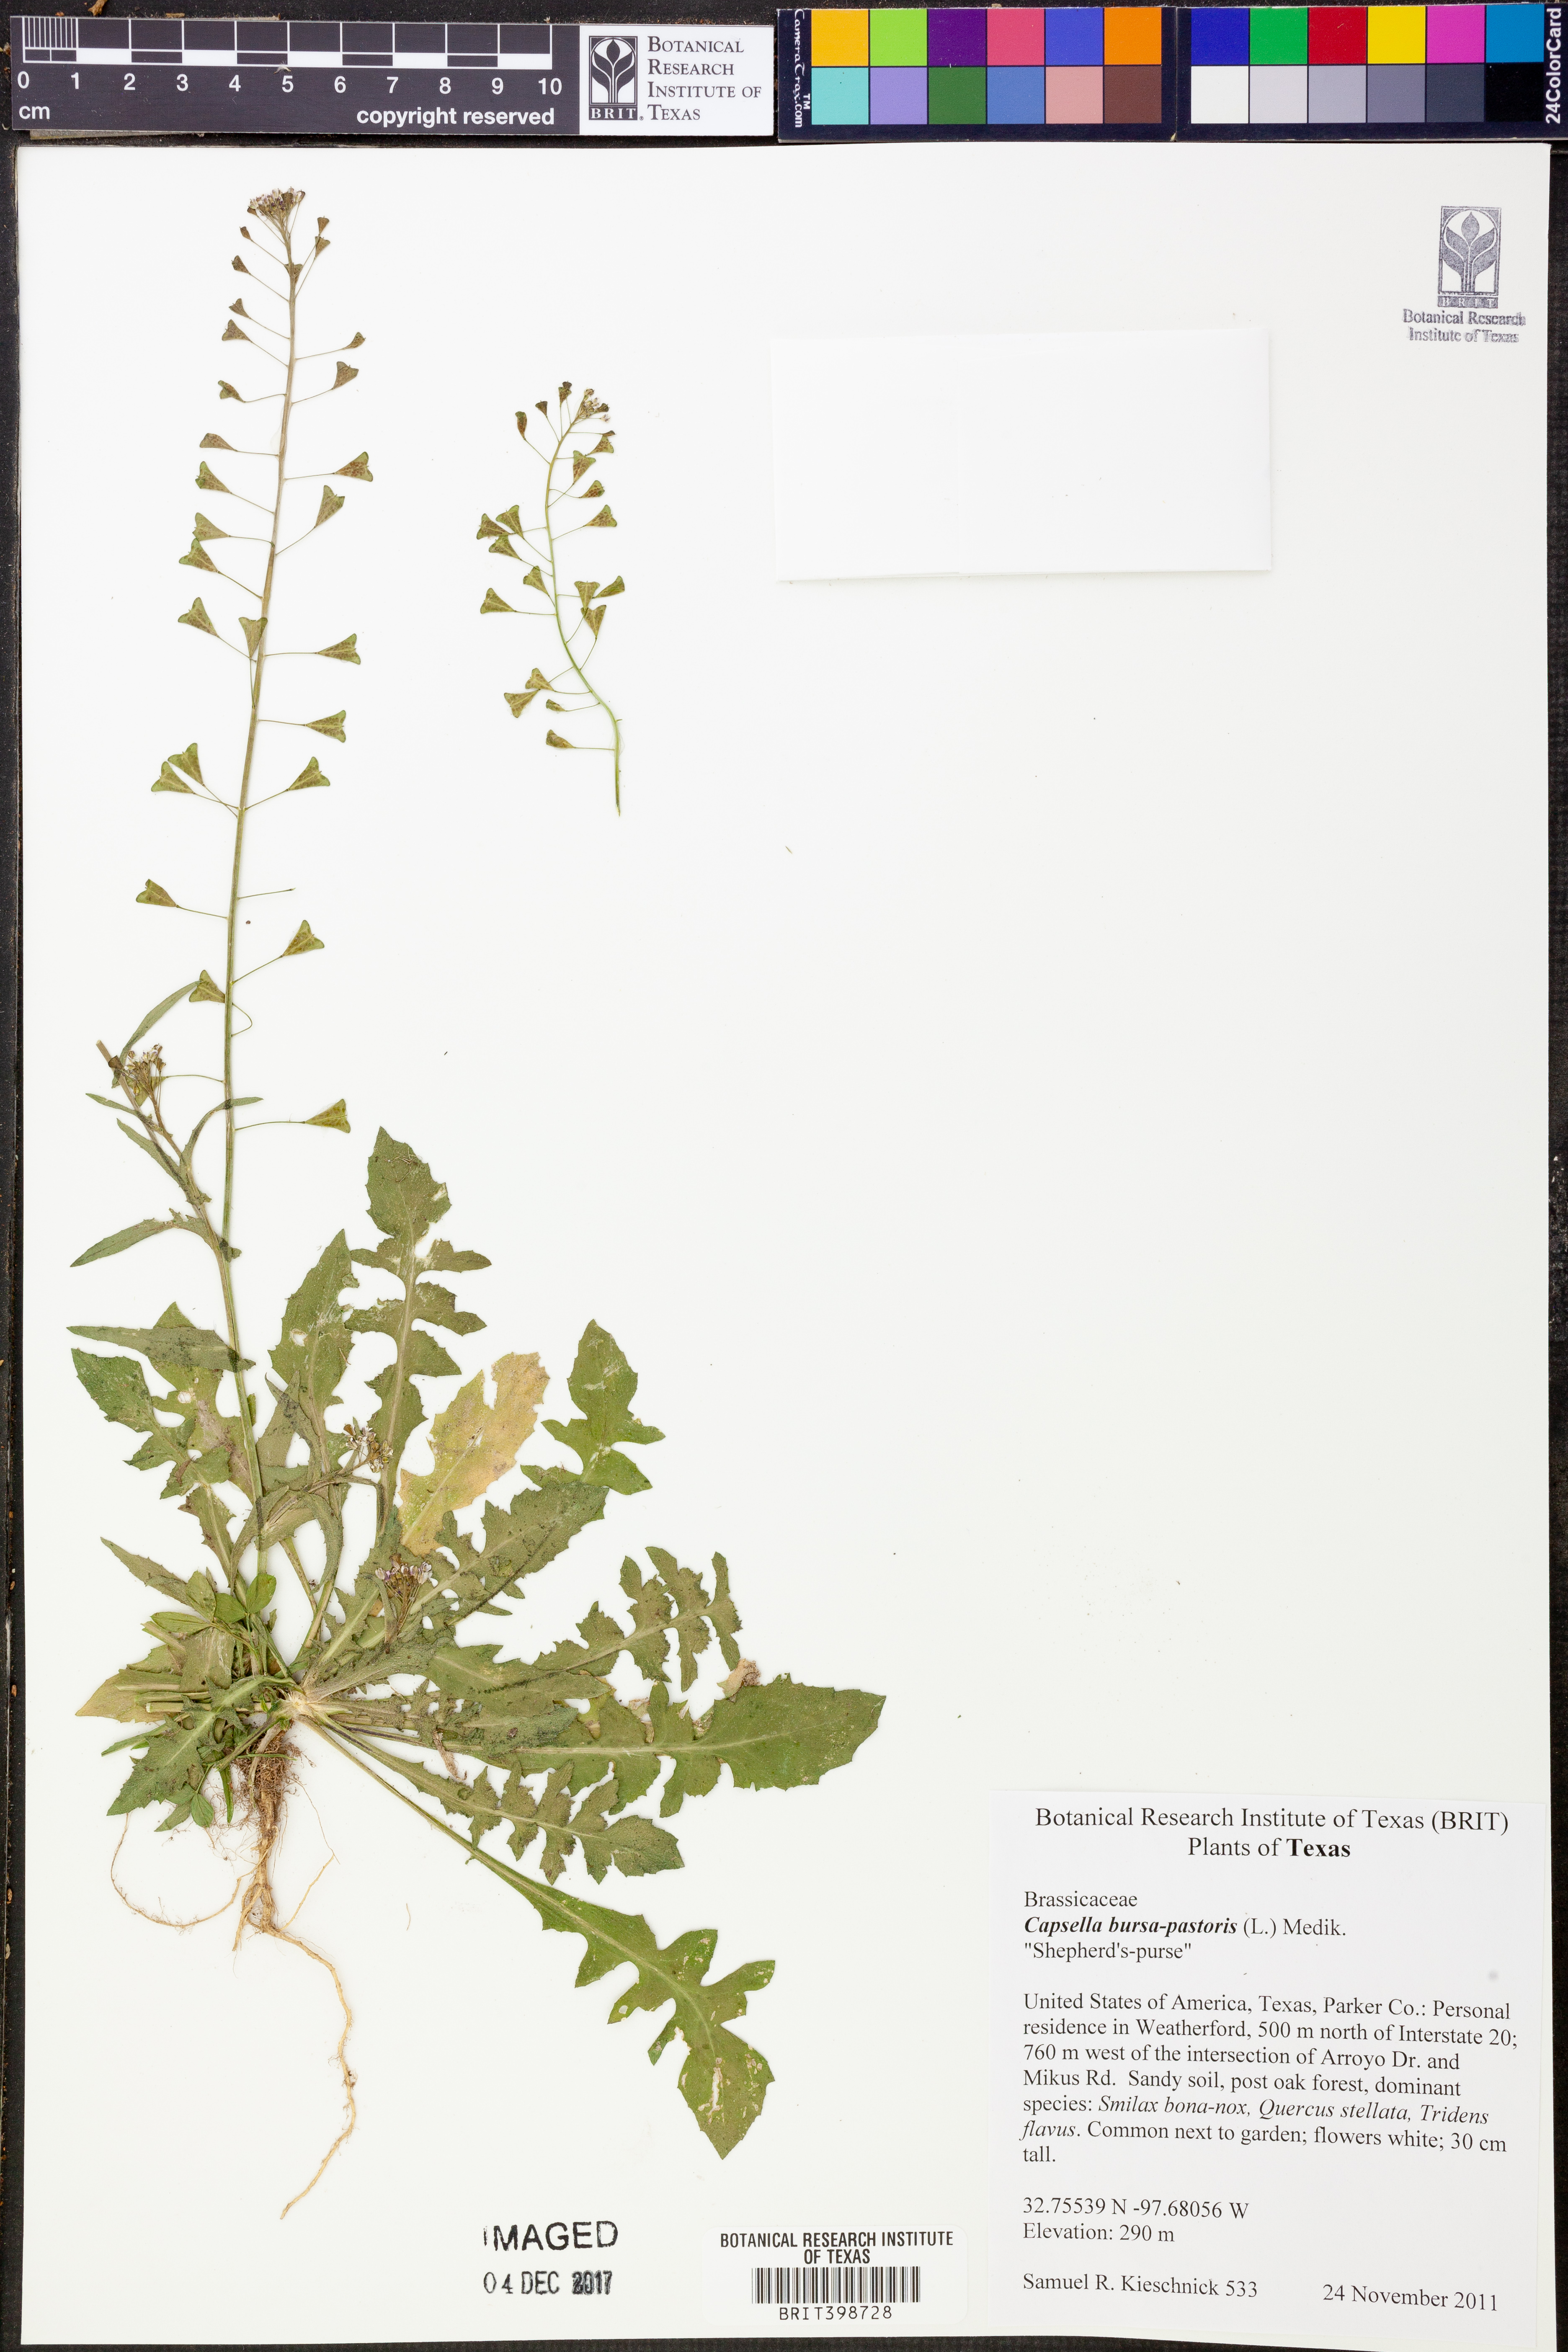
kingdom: Plantae
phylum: Tracheophyta
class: Magnoliopsida
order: Brassicales
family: Brassicaceae
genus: Capsella
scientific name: Capsella bursa-pastoris
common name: Shepherd's purse
